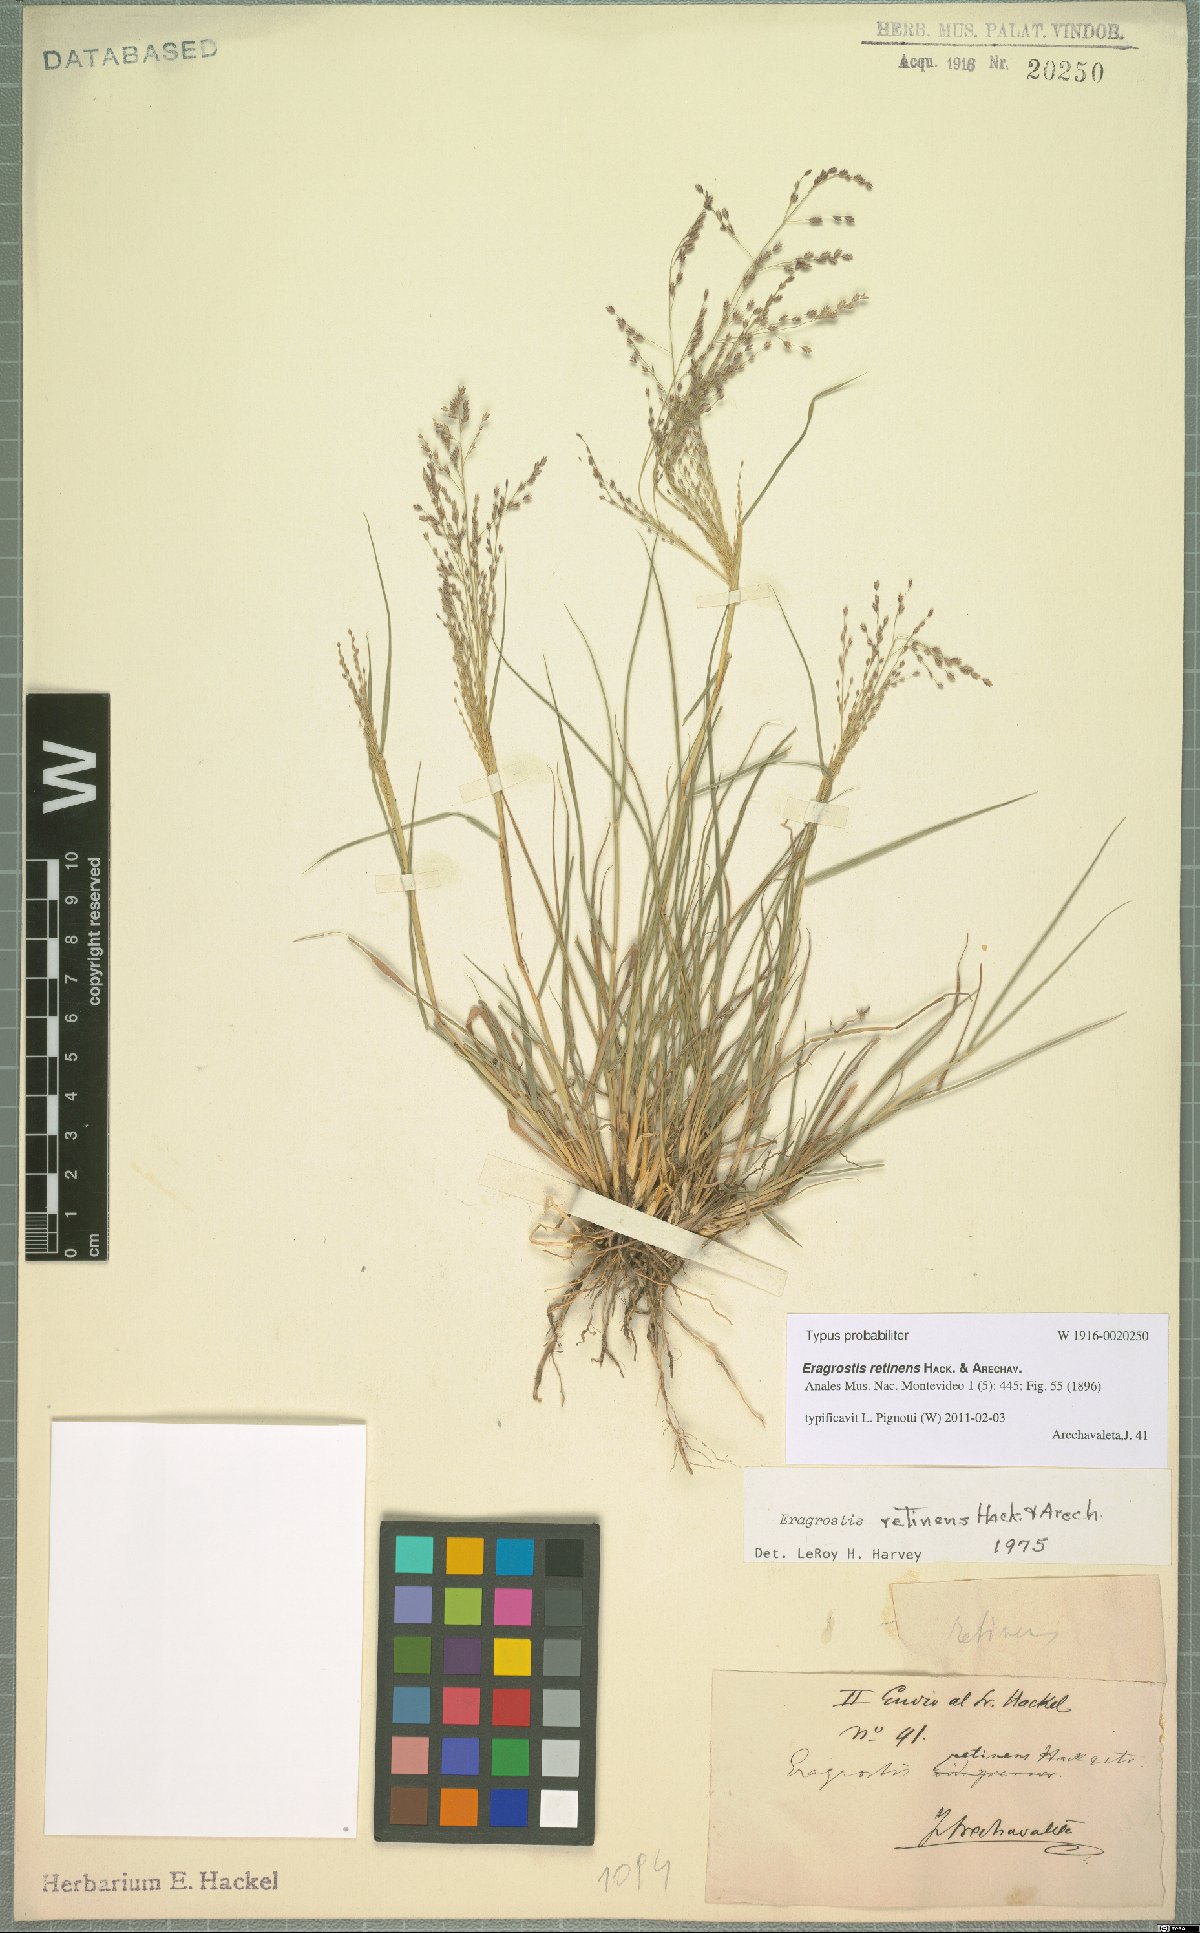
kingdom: Plantae
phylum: Tracheophyta
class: Liliopsida
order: Poales
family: Poaceae
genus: Eragrostis
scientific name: Eragrostis retinens
